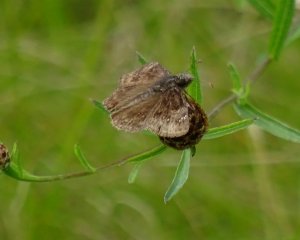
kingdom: Animalia
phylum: Arthropoda
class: Insecta
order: Lepidoptera
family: Hesperiidae
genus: Gesta
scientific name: Gesta
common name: Wild Indigo Duskywing
